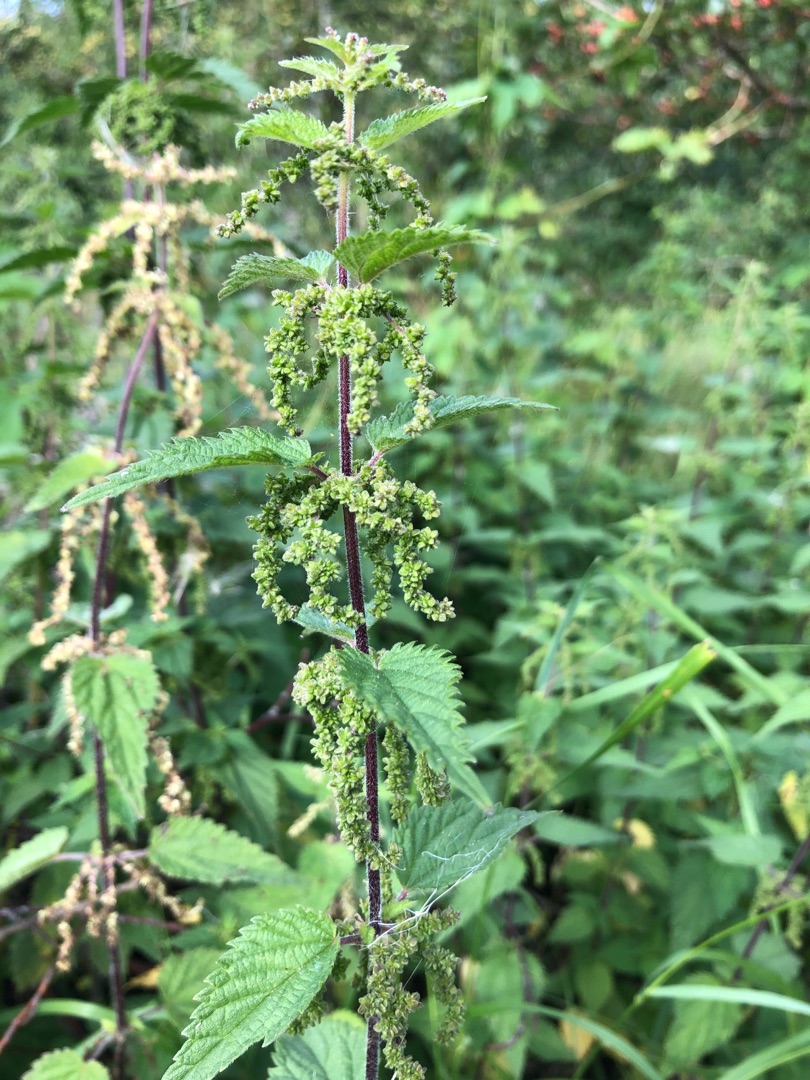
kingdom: Plantae
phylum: Tracheophyta
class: Magnoliopsida
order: Rosales
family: Urticaceae
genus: Urtica
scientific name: Urtica dioica
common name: Stor nælde
